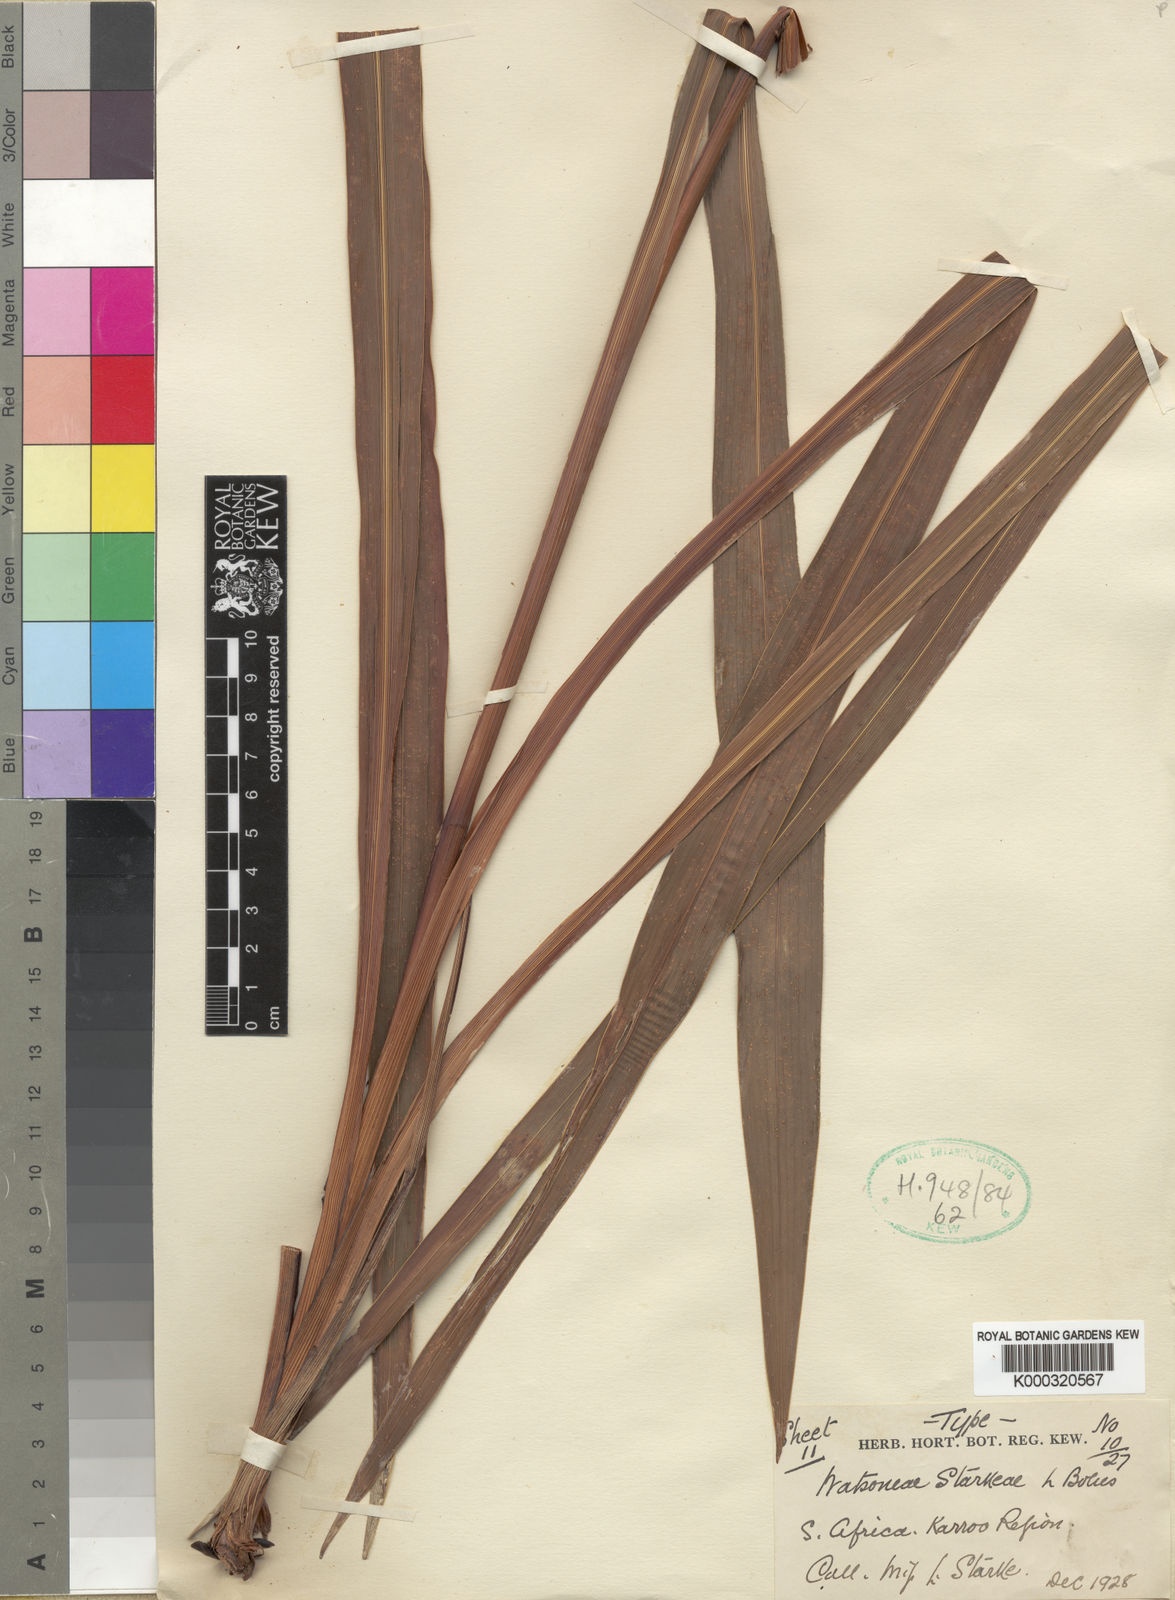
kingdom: Plantae
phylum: Tracheophyta
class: Liliopsida
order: Asparagales
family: Iridaceae
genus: Watsonia
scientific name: Watsonia wilmaniae
